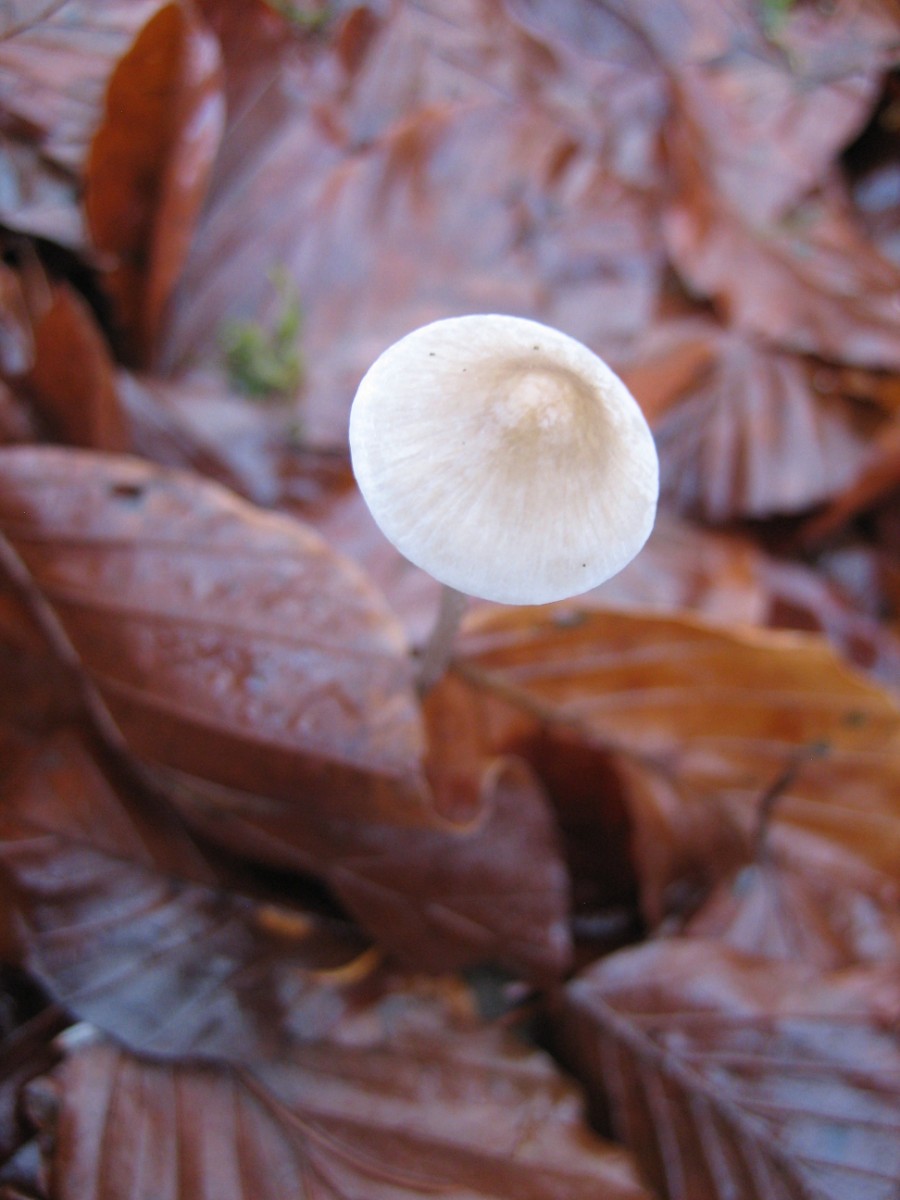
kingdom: Fungi
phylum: Basidiomycota
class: Agaricomycetes
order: Agaricales
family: Mycenaceae
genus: Mycena
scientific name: Mycena vitilis
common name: blankstokket huesvamp
